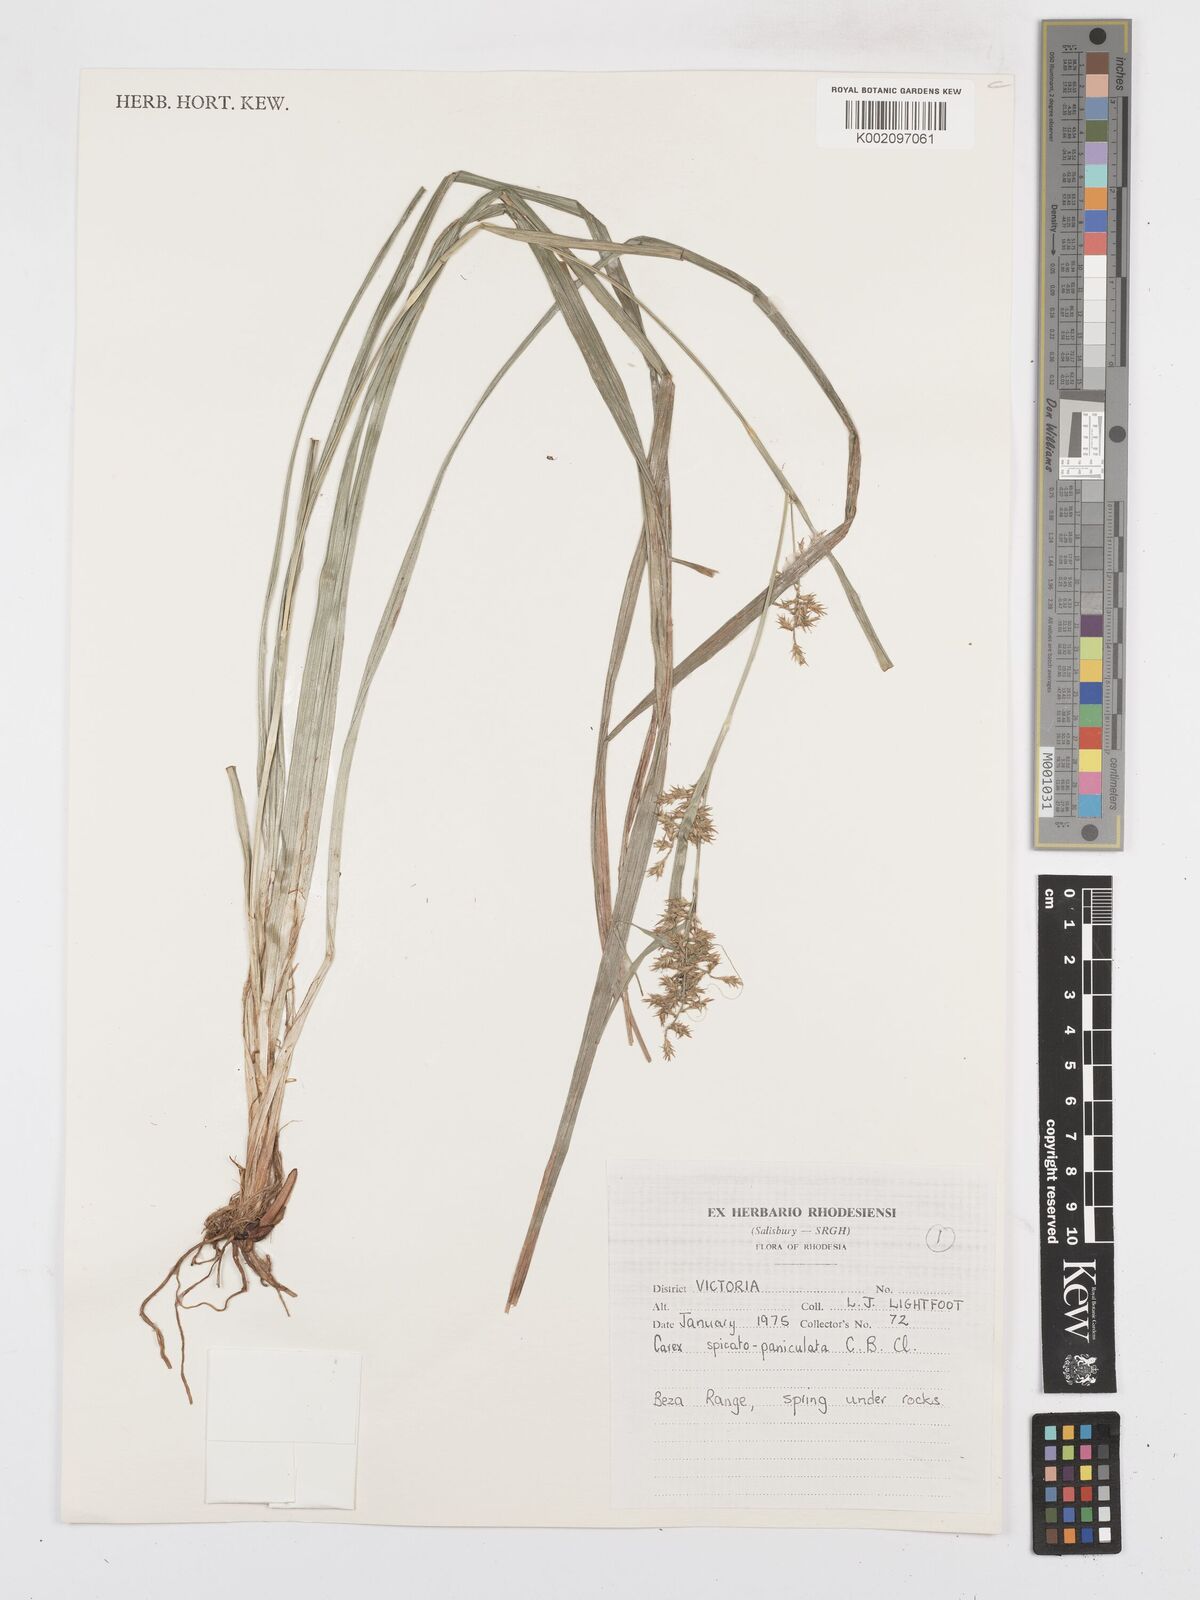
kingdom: Plantae
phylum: Tracheophyta
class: Liliopsida
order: Poales
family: Cyperaceae
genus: Carex
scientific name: Carex spicatopaniculata
